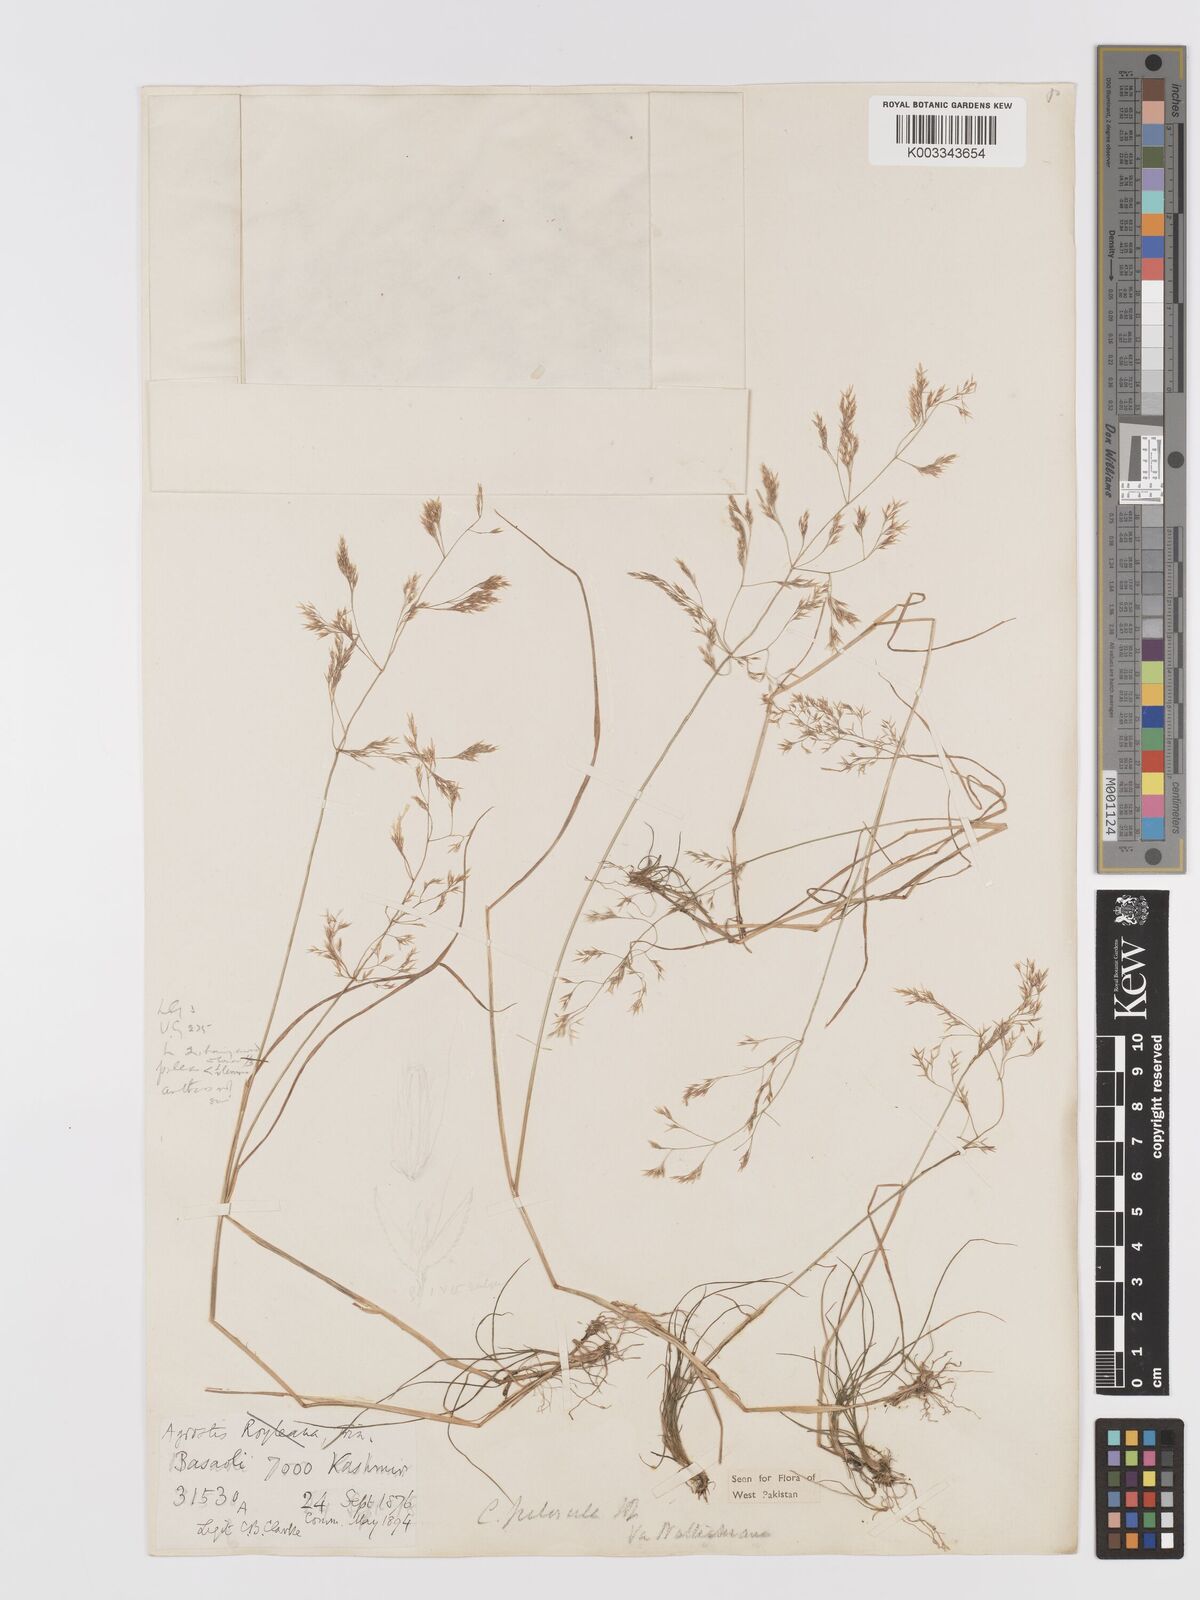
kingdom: Plantae
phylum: Tracheophyta
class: Liliopsida
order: Poales
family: Poaceae
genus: Agrostis
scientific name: Agrostis pilosula
